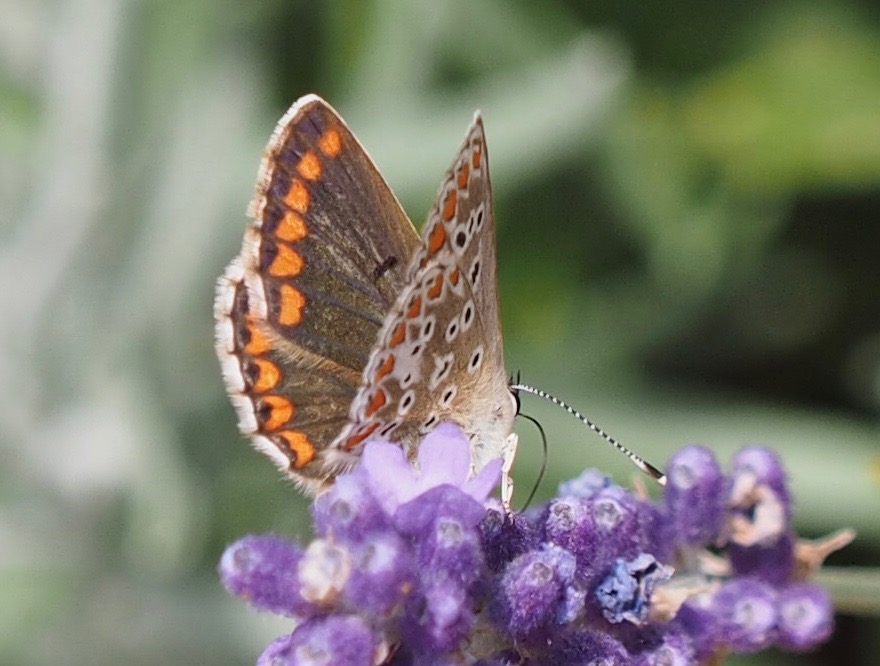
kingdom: Animalia
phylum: Arthropoda
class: Insecta
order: Lepidoptera
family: Lycaenidae
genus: Aricia
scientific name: Aricia agestis
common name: Rødplettet blåfugl
